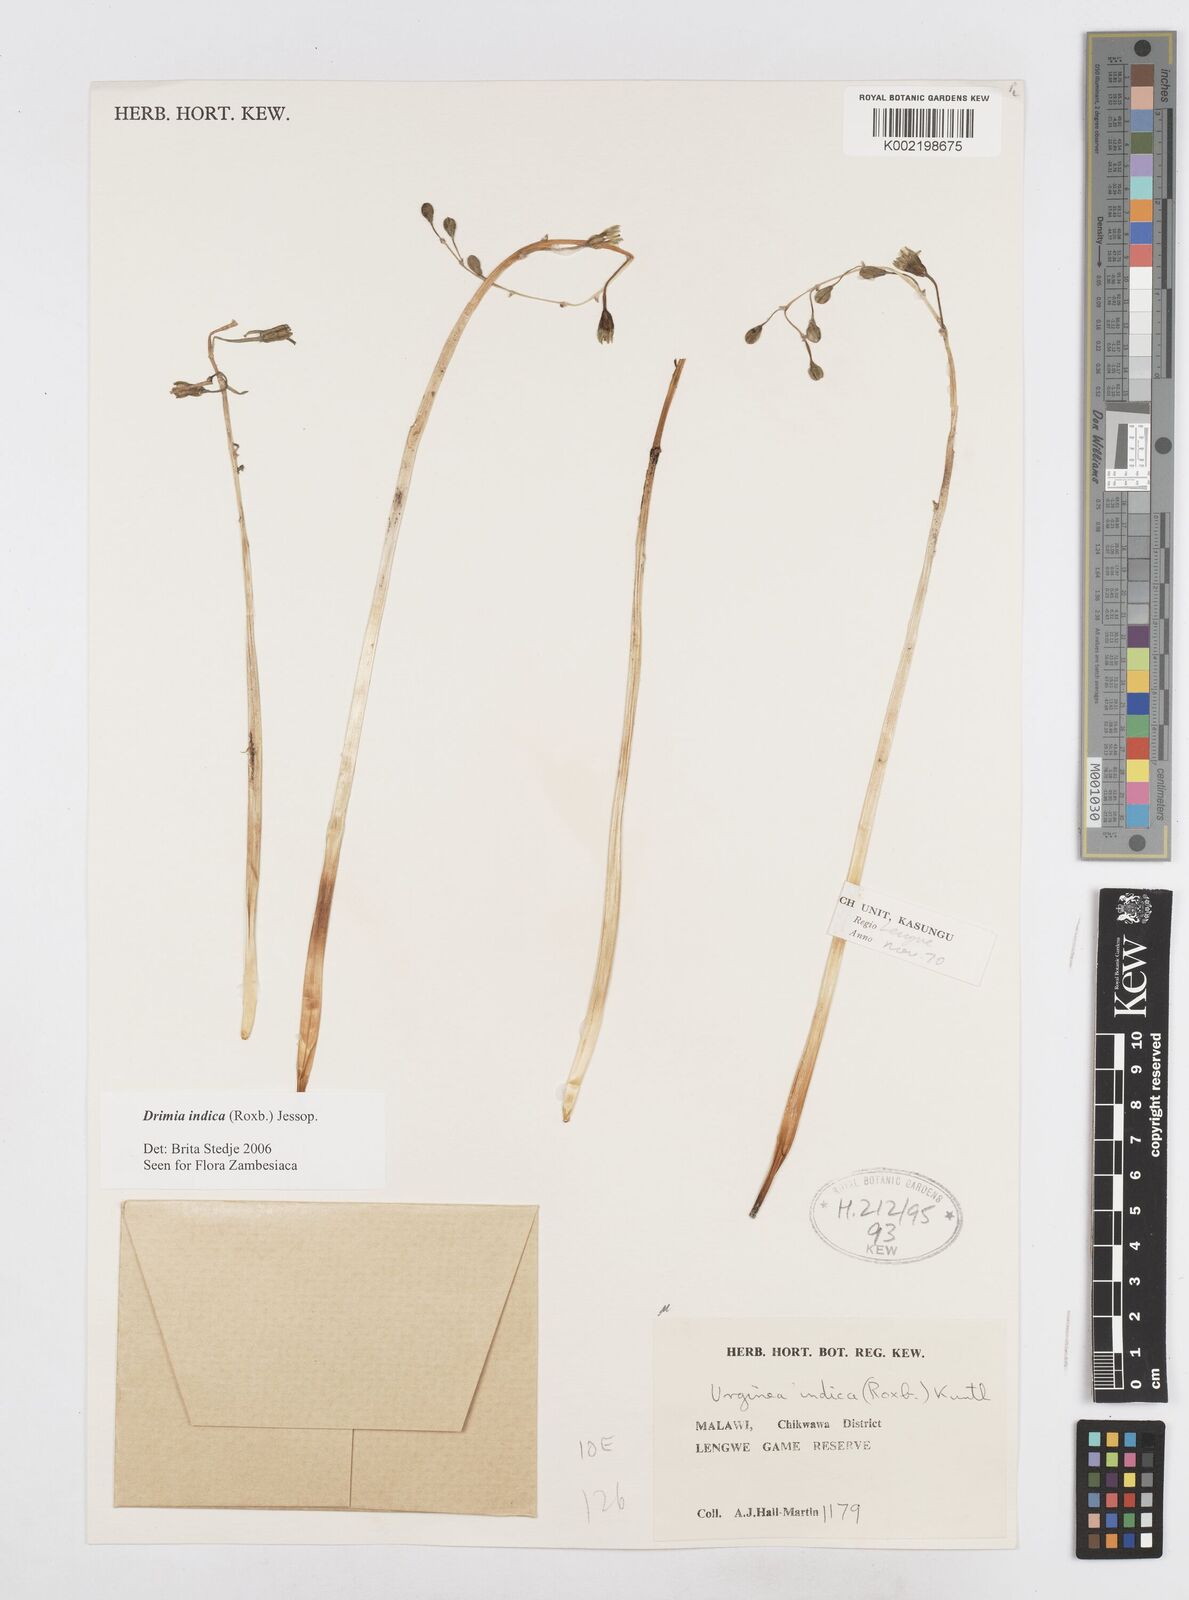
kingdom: Plantae
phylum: Tracheophyta
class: Liliopsida
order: Asparagales
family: Asparagaceae
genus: Drimia
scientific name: Drimia indica
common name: Indian-squill
